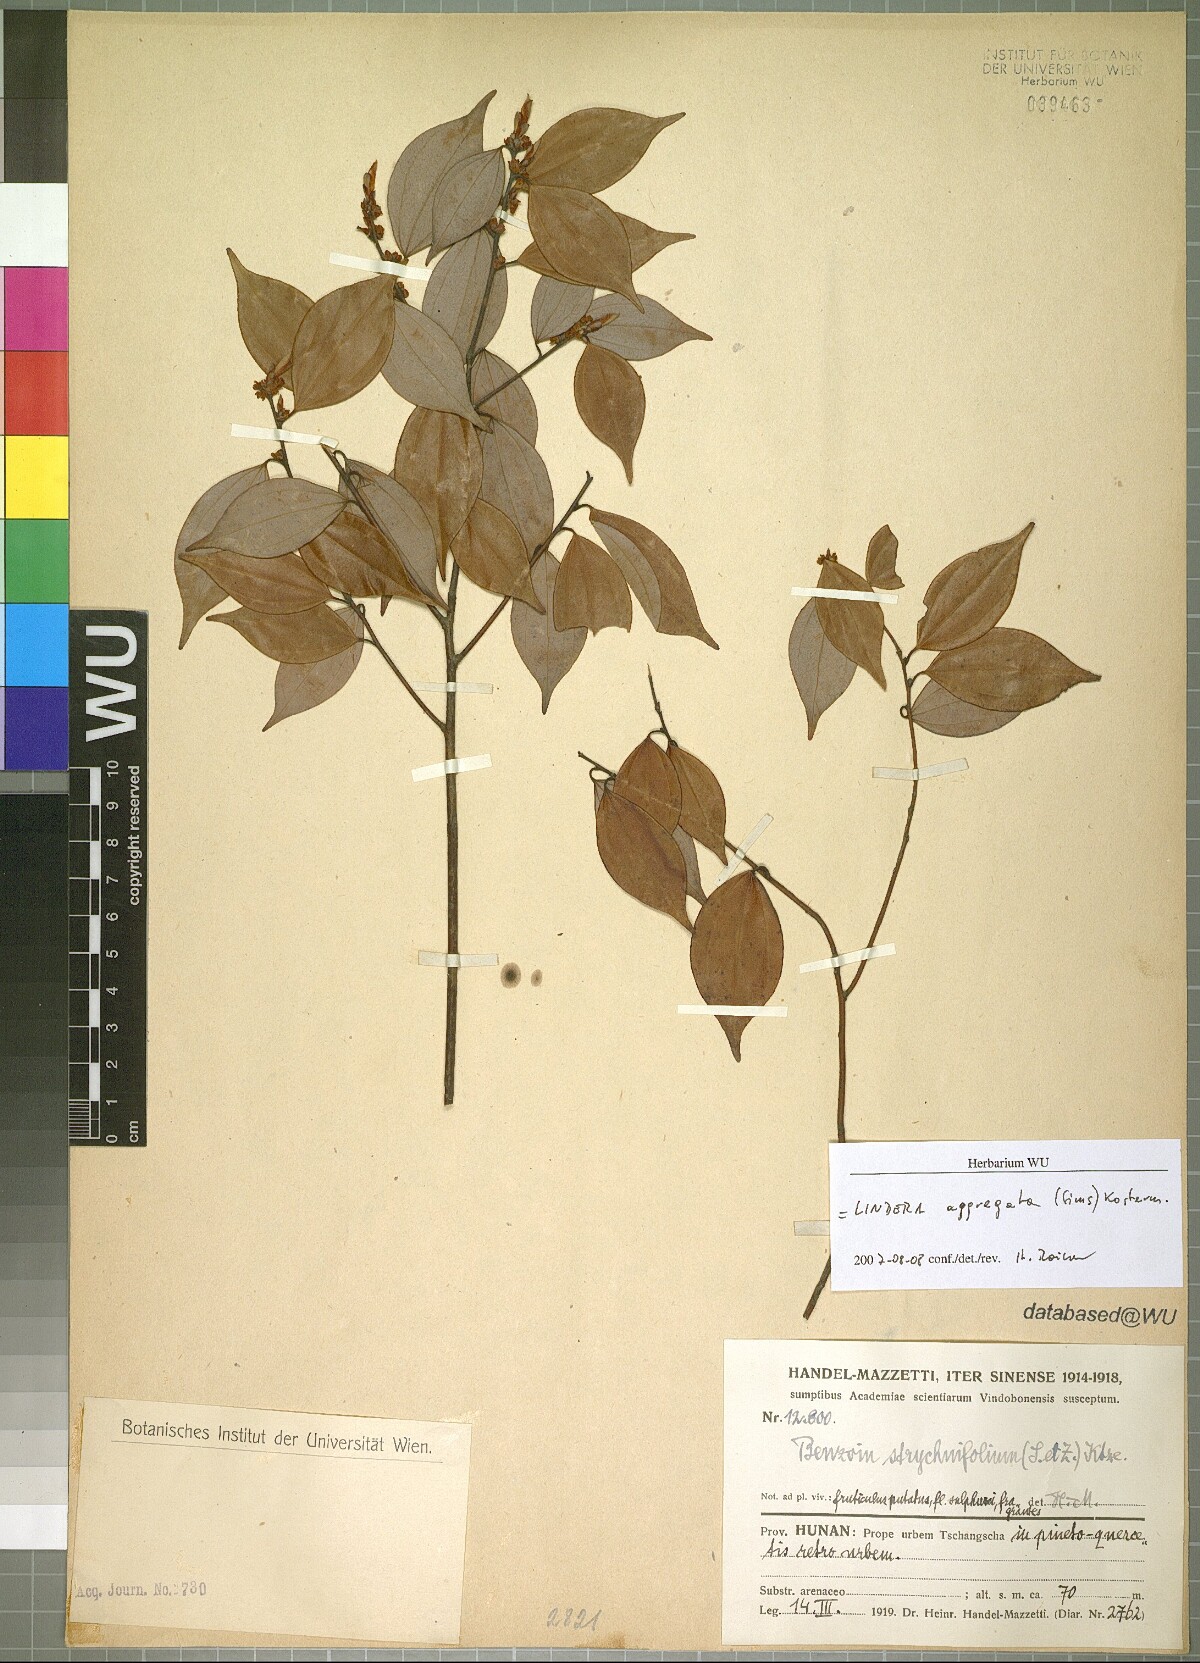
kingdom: Plantae
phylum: Tracheophyta
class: Magnoliopsida
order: Laurales
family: Lauraceae
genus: Lindera
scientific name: Lindera aggregata
